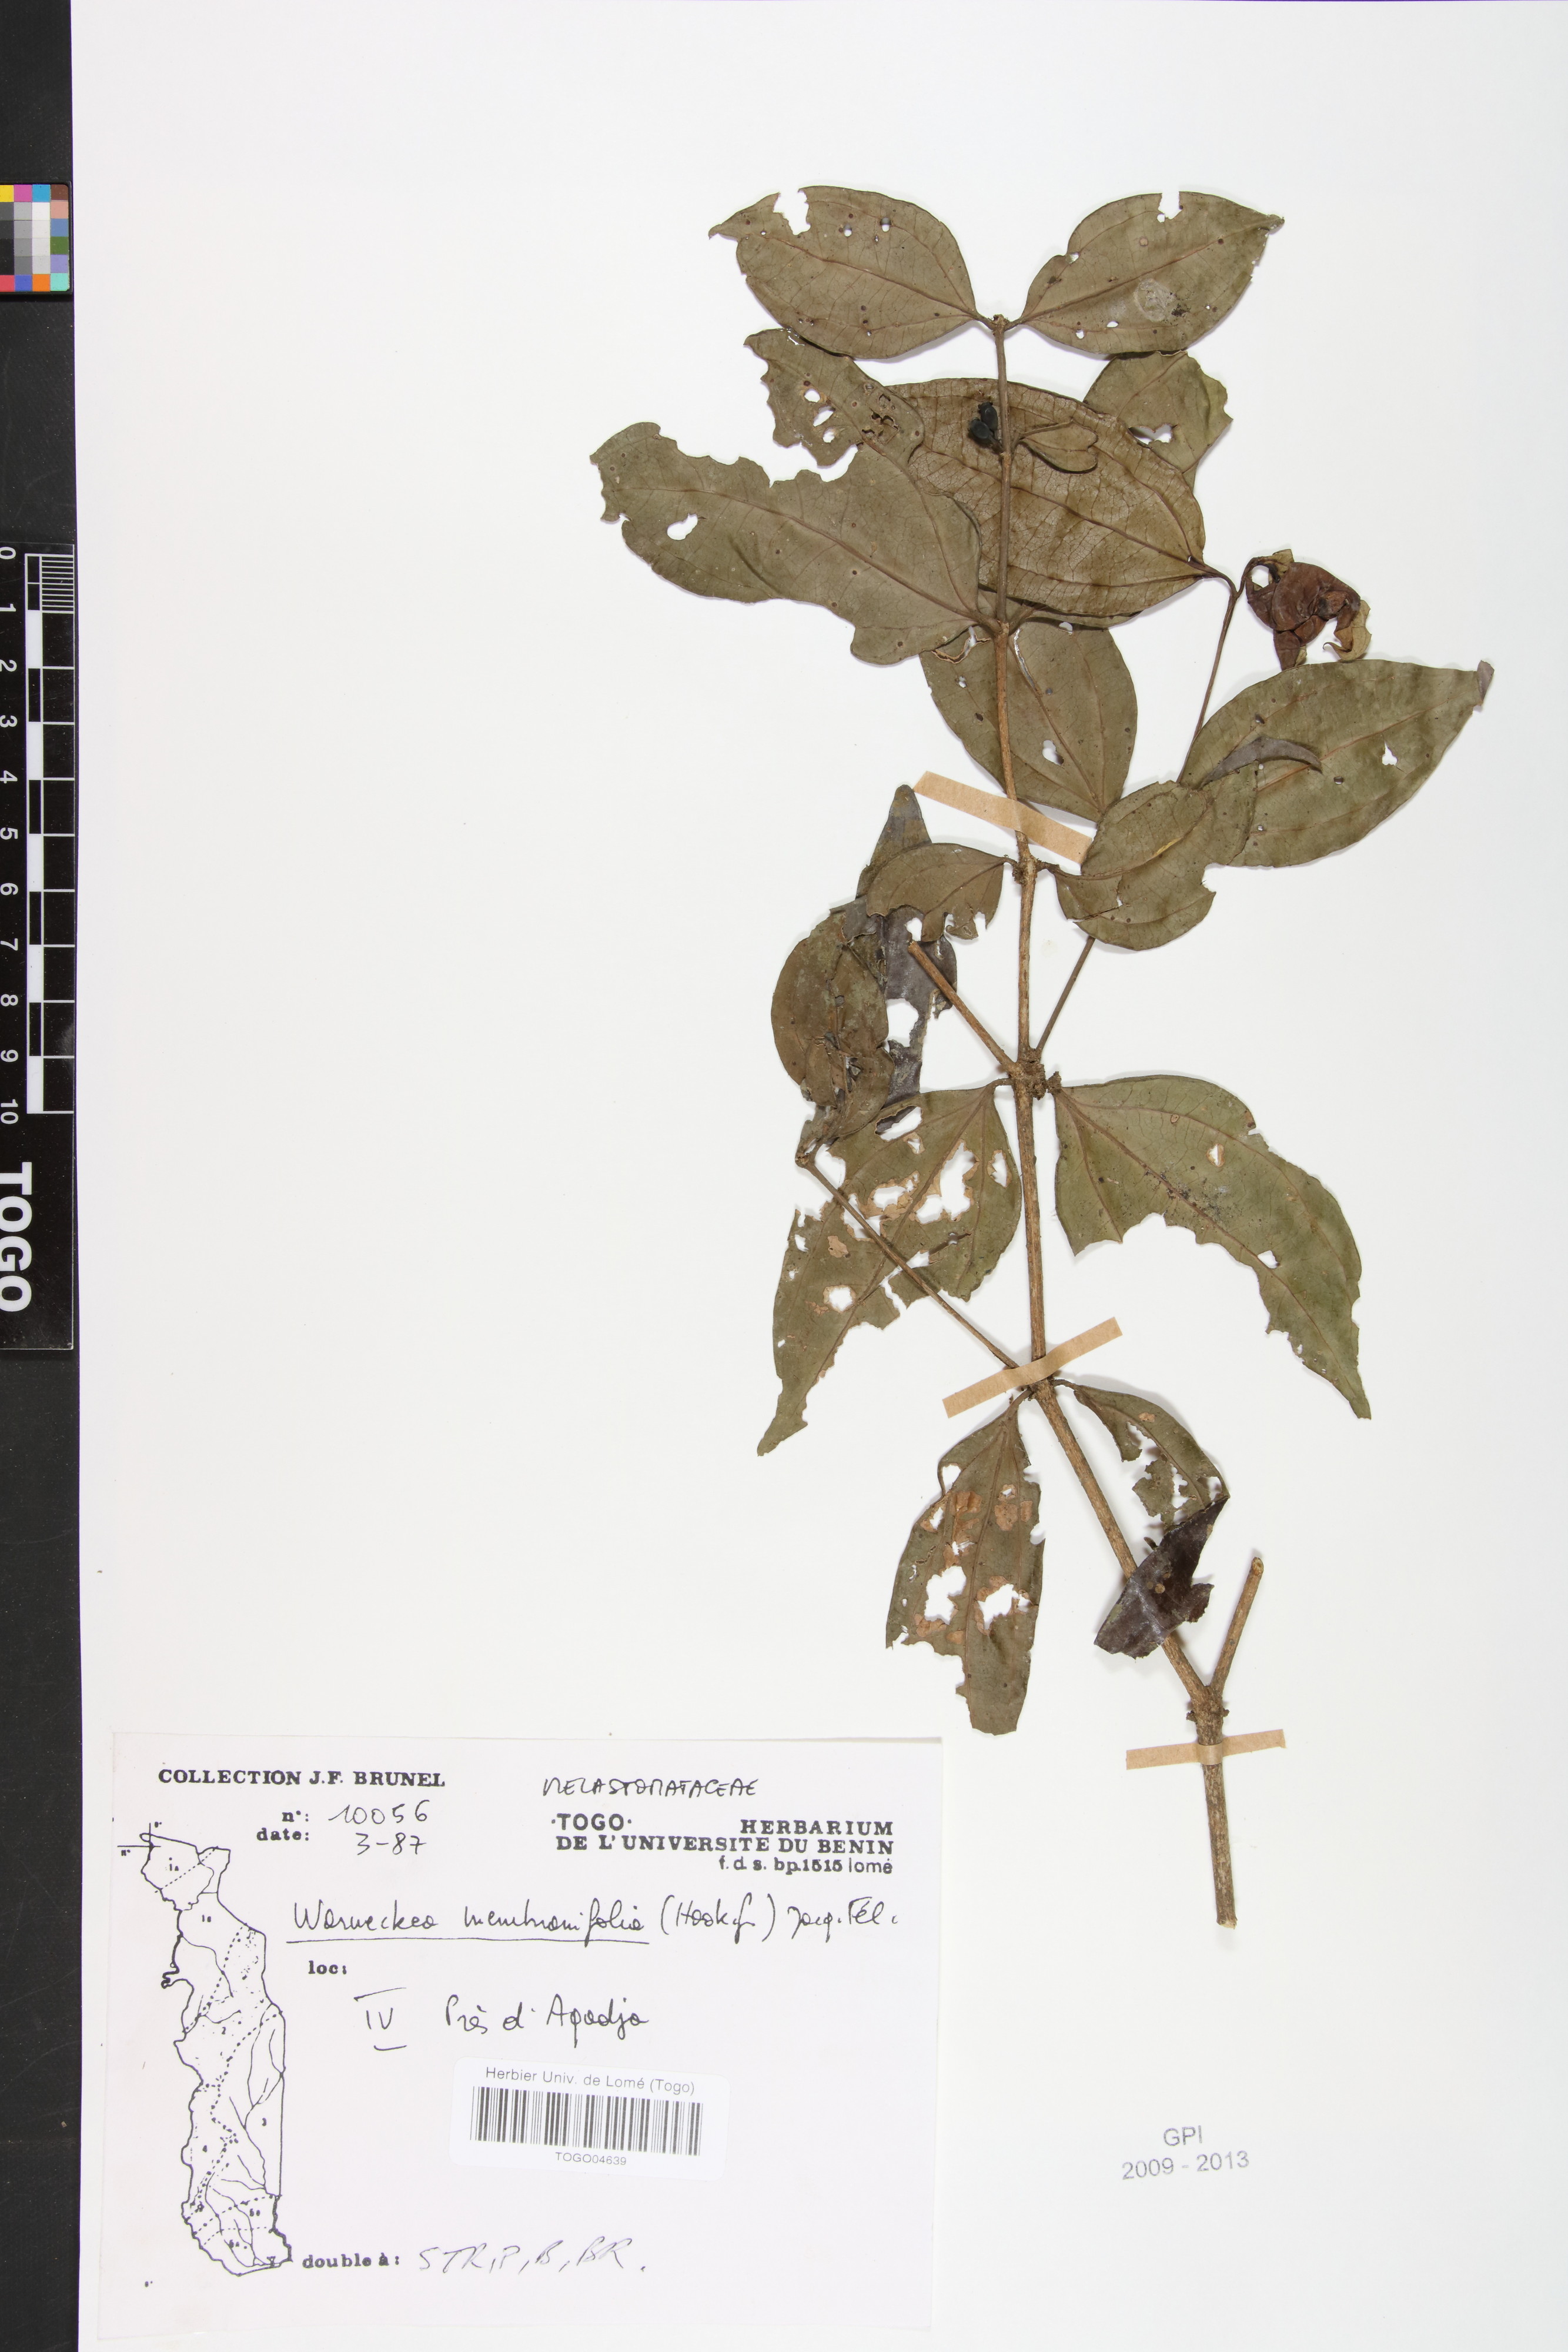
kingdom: Plantae
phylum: Tracheophyta
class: Magnoliopsida
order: Myrtales
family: Melastomataceae
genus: Warneckea
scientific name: Warneckea membranifolia
